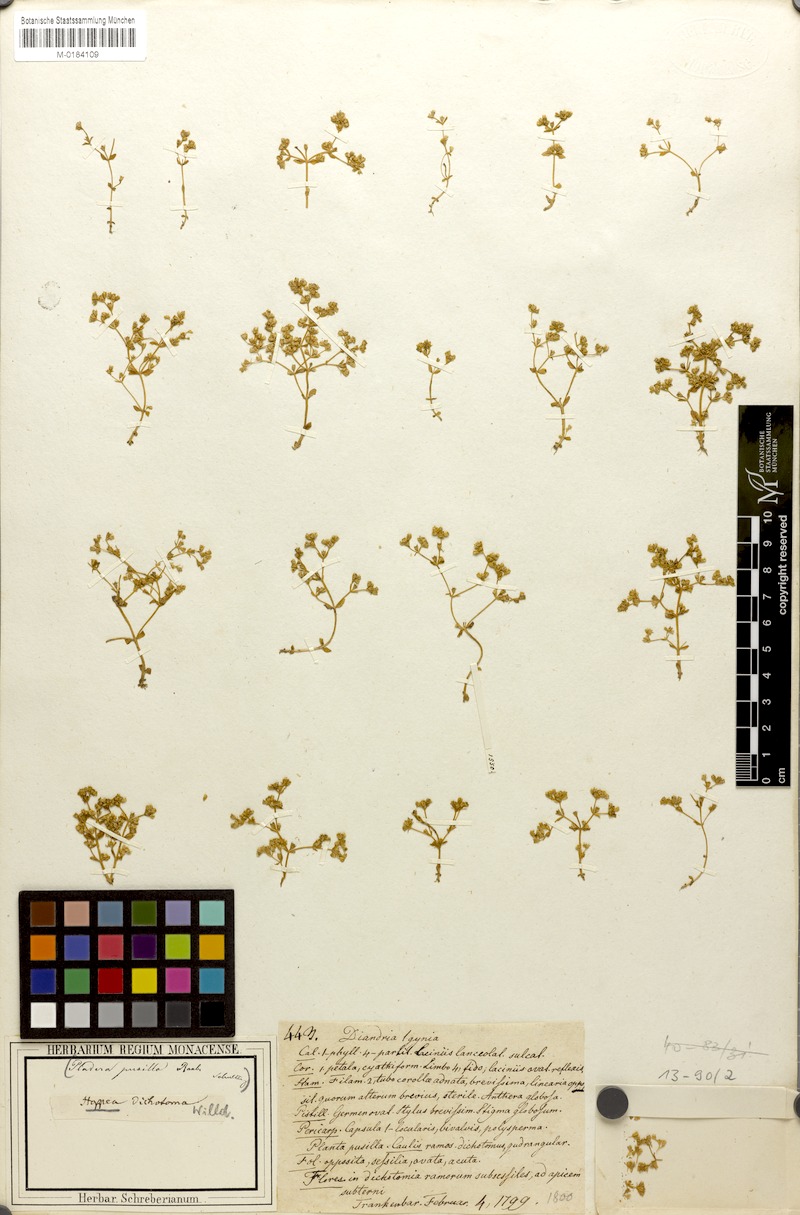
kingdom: Plantae
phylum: Tracheophyta
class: Magnoliopsida
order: Gentianales
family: Gentianaceae
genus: Hoppea
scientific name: Hoppea dichotoma
